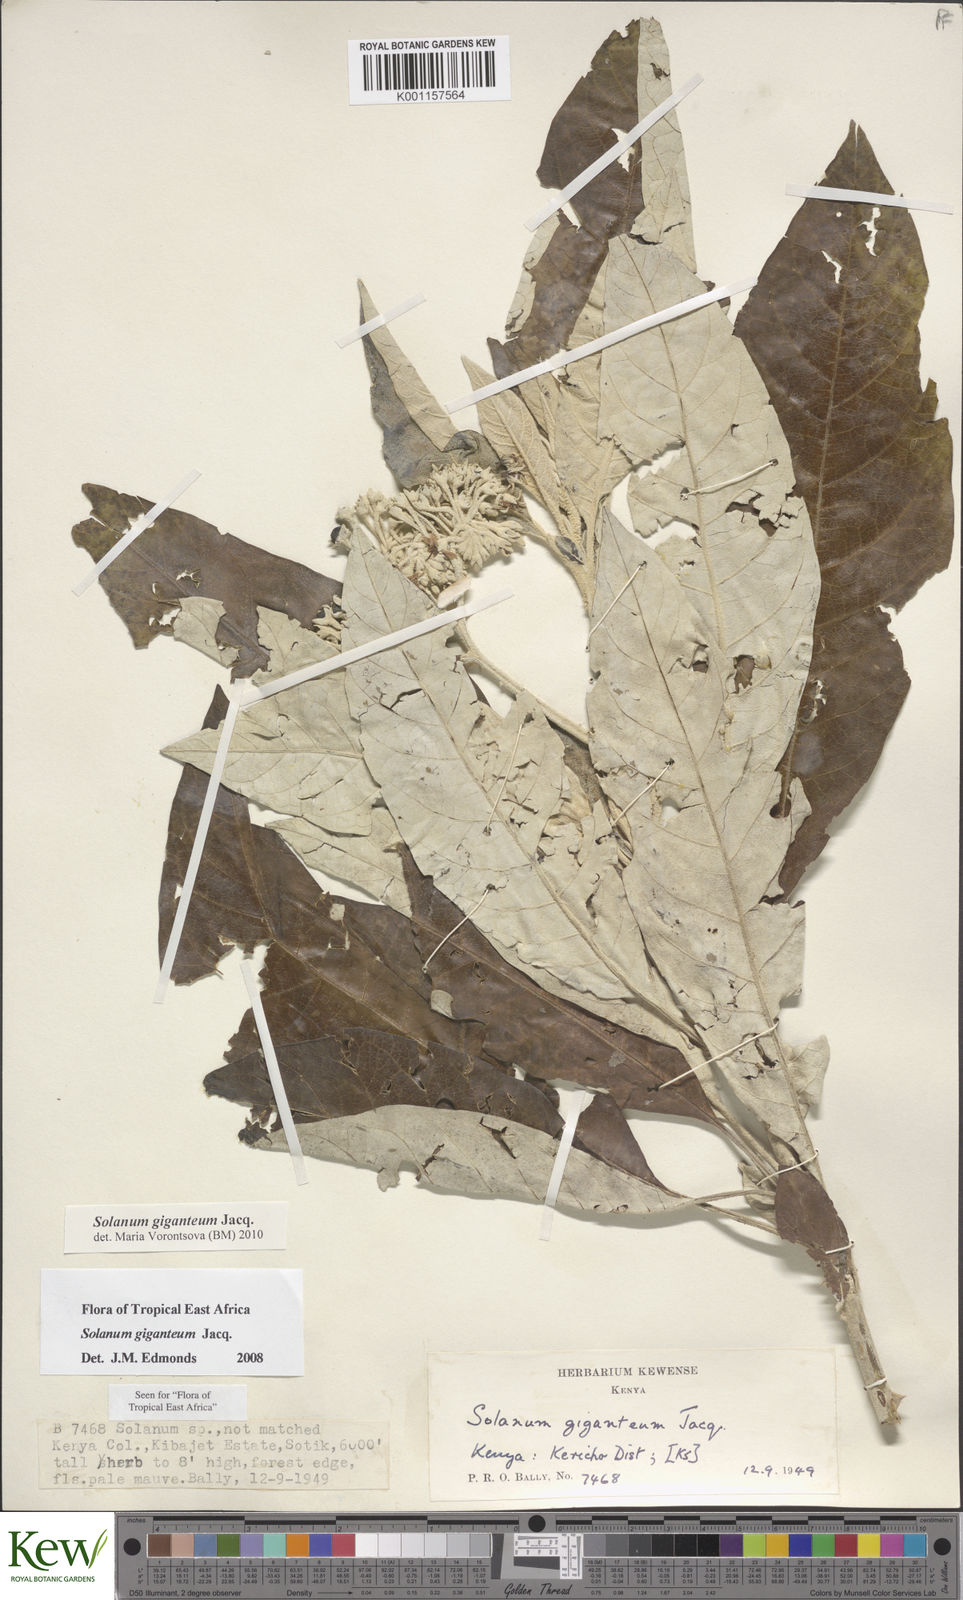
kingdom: Plantae
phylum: Tracheophyta
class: Magnoliopsida
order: Solanales
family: Solanaceae
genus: Solanum
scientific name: Solanum giganteum
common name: Healing-leaf-tree
